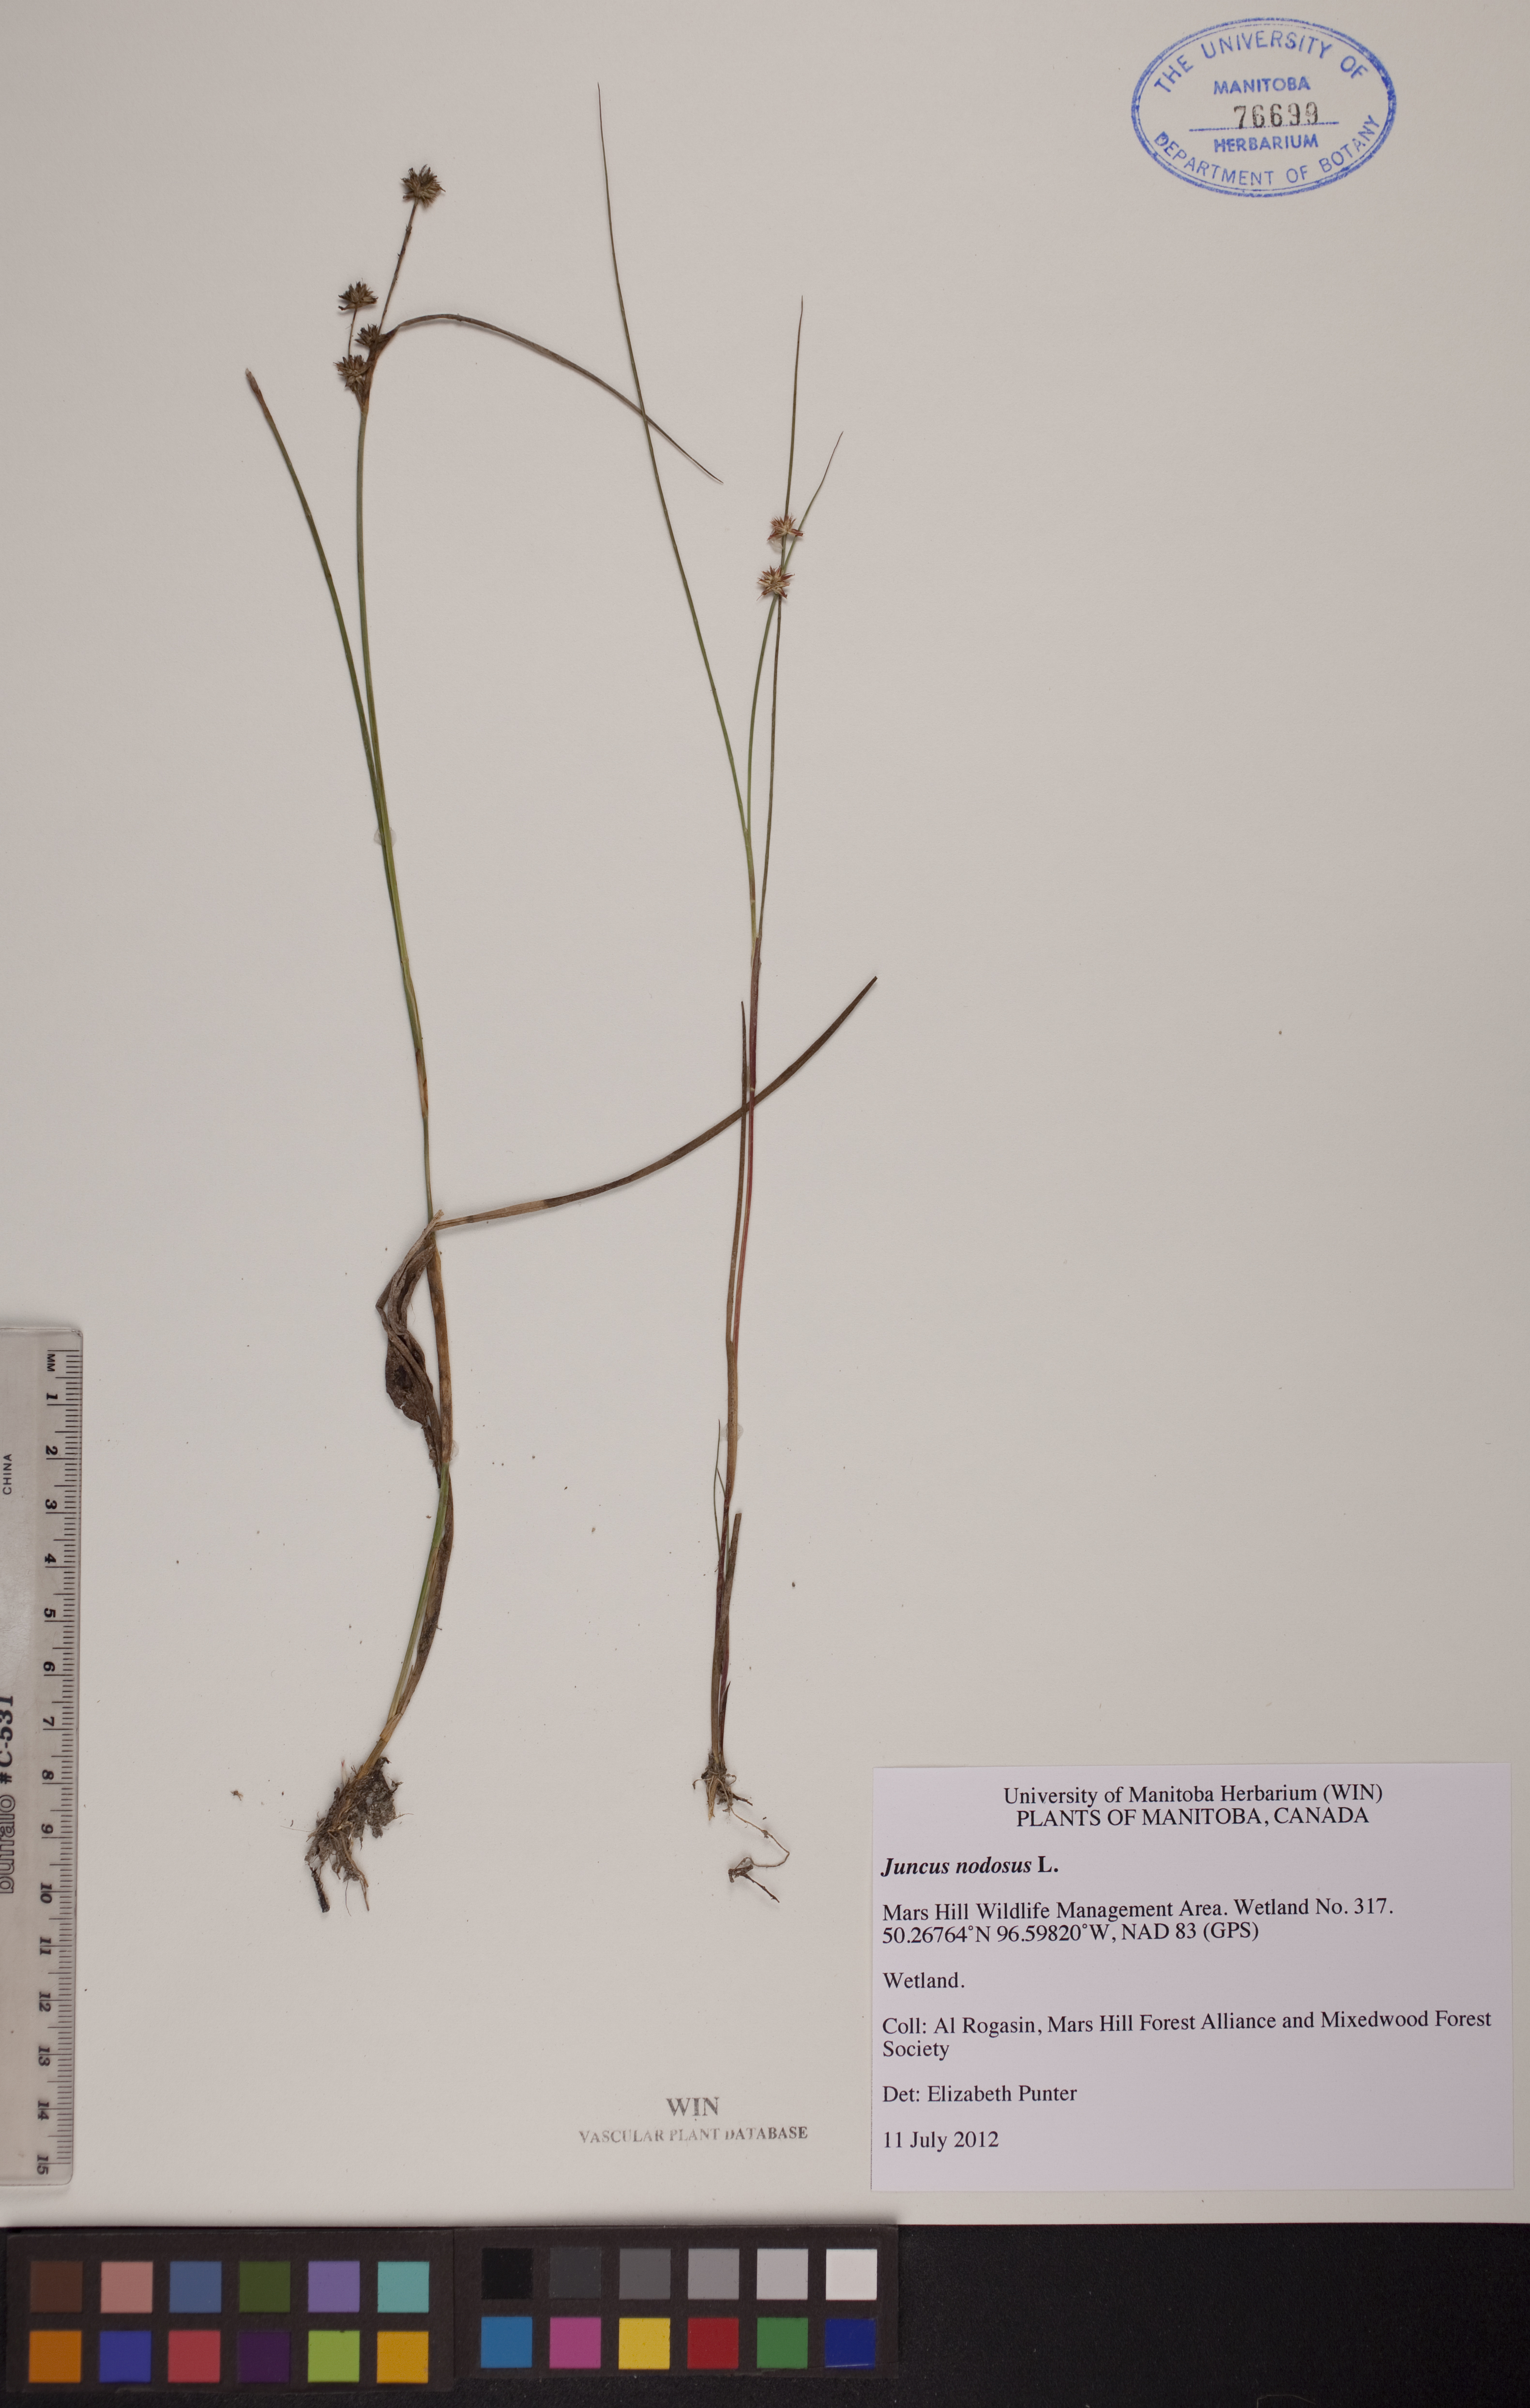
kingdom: Plantae
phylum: Tracheophyta
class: Liliopsida
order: Poales
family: Juncaceae
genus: Juncus
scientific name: Juncus nodosus
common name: Knotted rush
